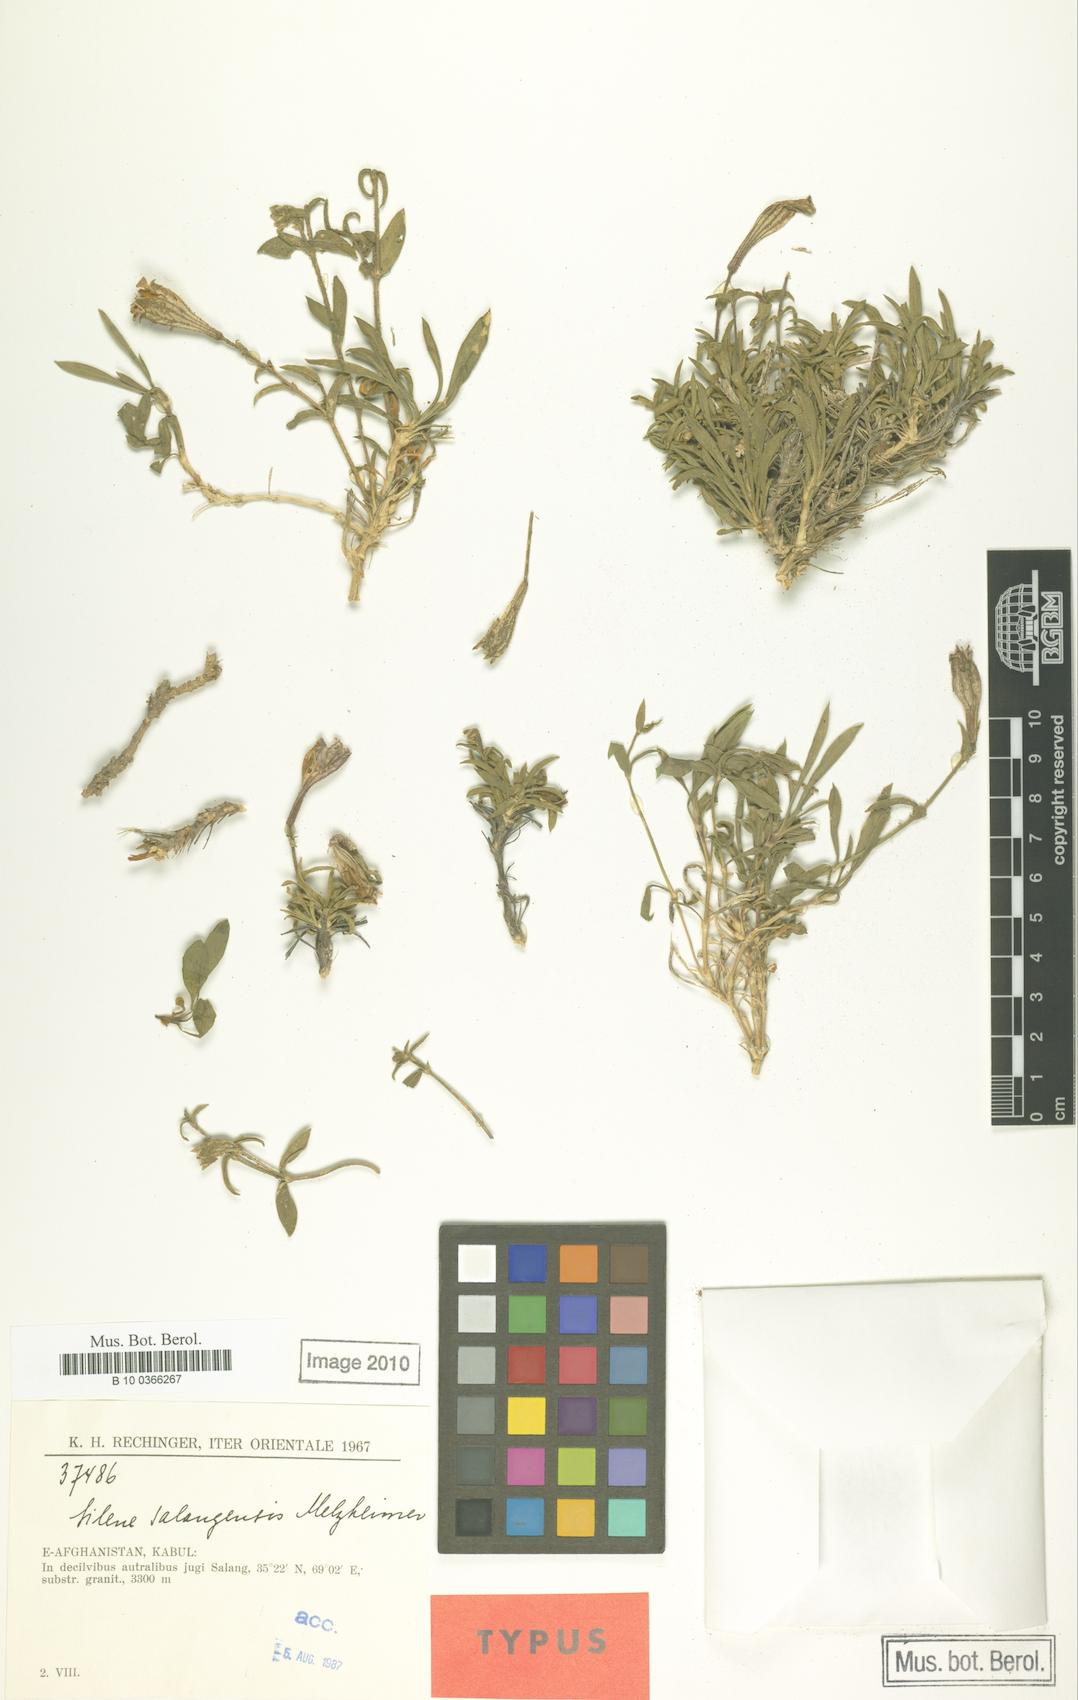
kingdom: Plantae
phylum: Tracheophyta
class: Magnoliopsida
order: Caryophyllales
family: Caryophyllaceae
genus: Silene
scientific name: Silene salangensis
